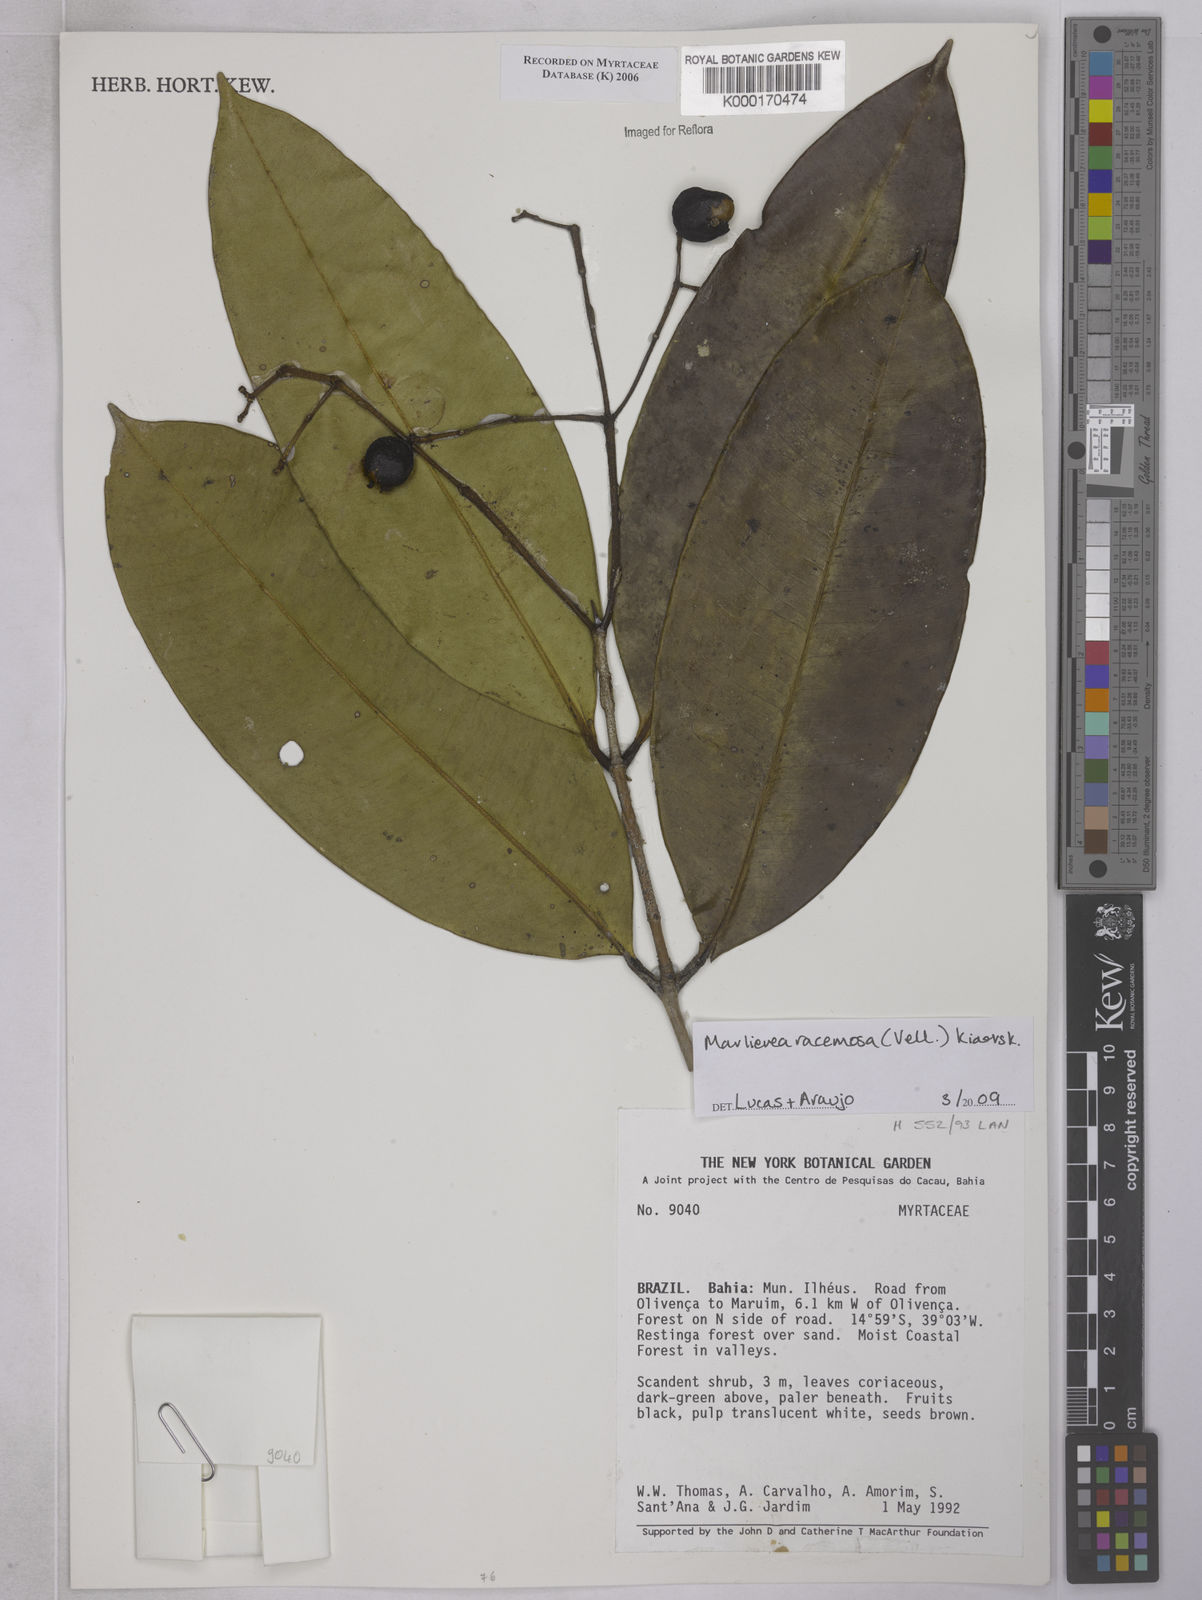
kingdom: Plantae
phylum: Tracheophyta
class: Magnoliopsida
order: Myrtales
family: Myrtaceae
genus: Marlierea
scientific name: Marlierea
